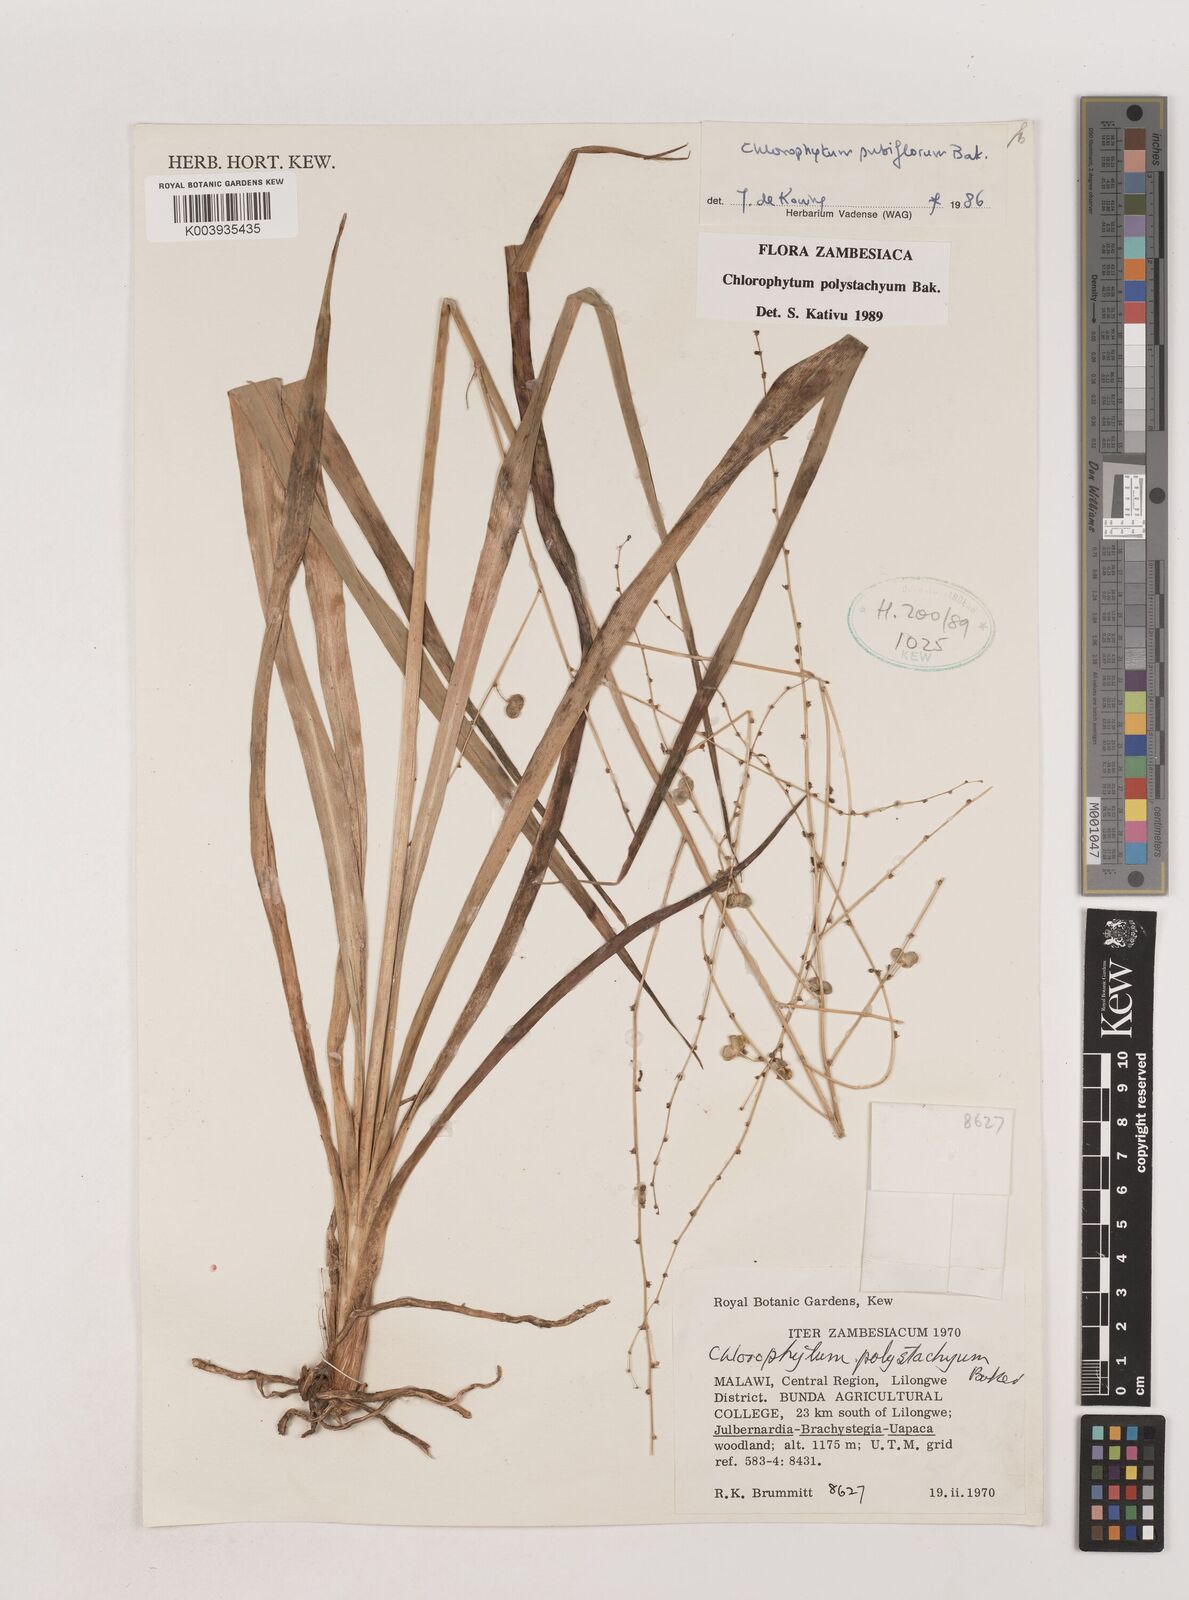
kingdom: Plantae
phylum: Tracheophyta
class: Liliopsida
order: Asparagales
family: Asparagaceae
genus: Chlorophytum
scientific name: Chlorophytum polystachys
